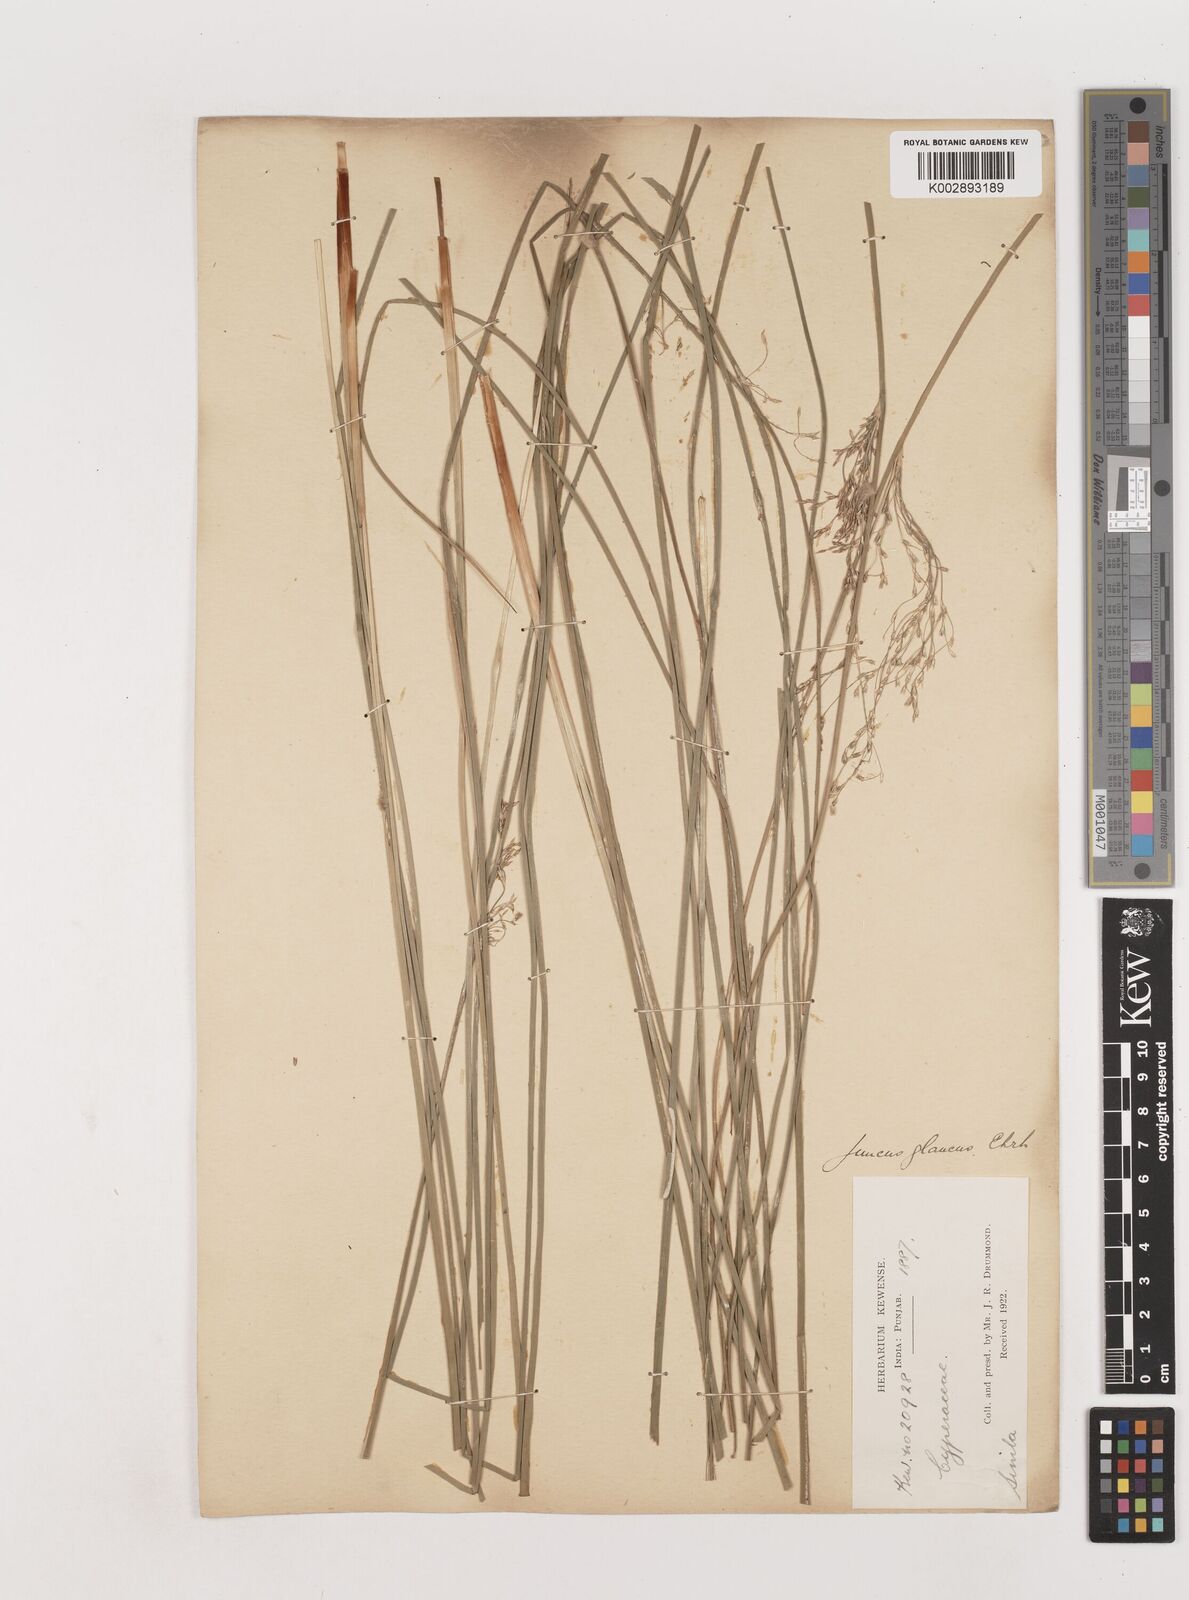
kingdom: Plantae
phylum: Tracheophyta
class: Liliopsida
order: Poales
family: Juncaceae
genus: Juncus
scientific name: Juncus inflexus
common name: Hard rush
